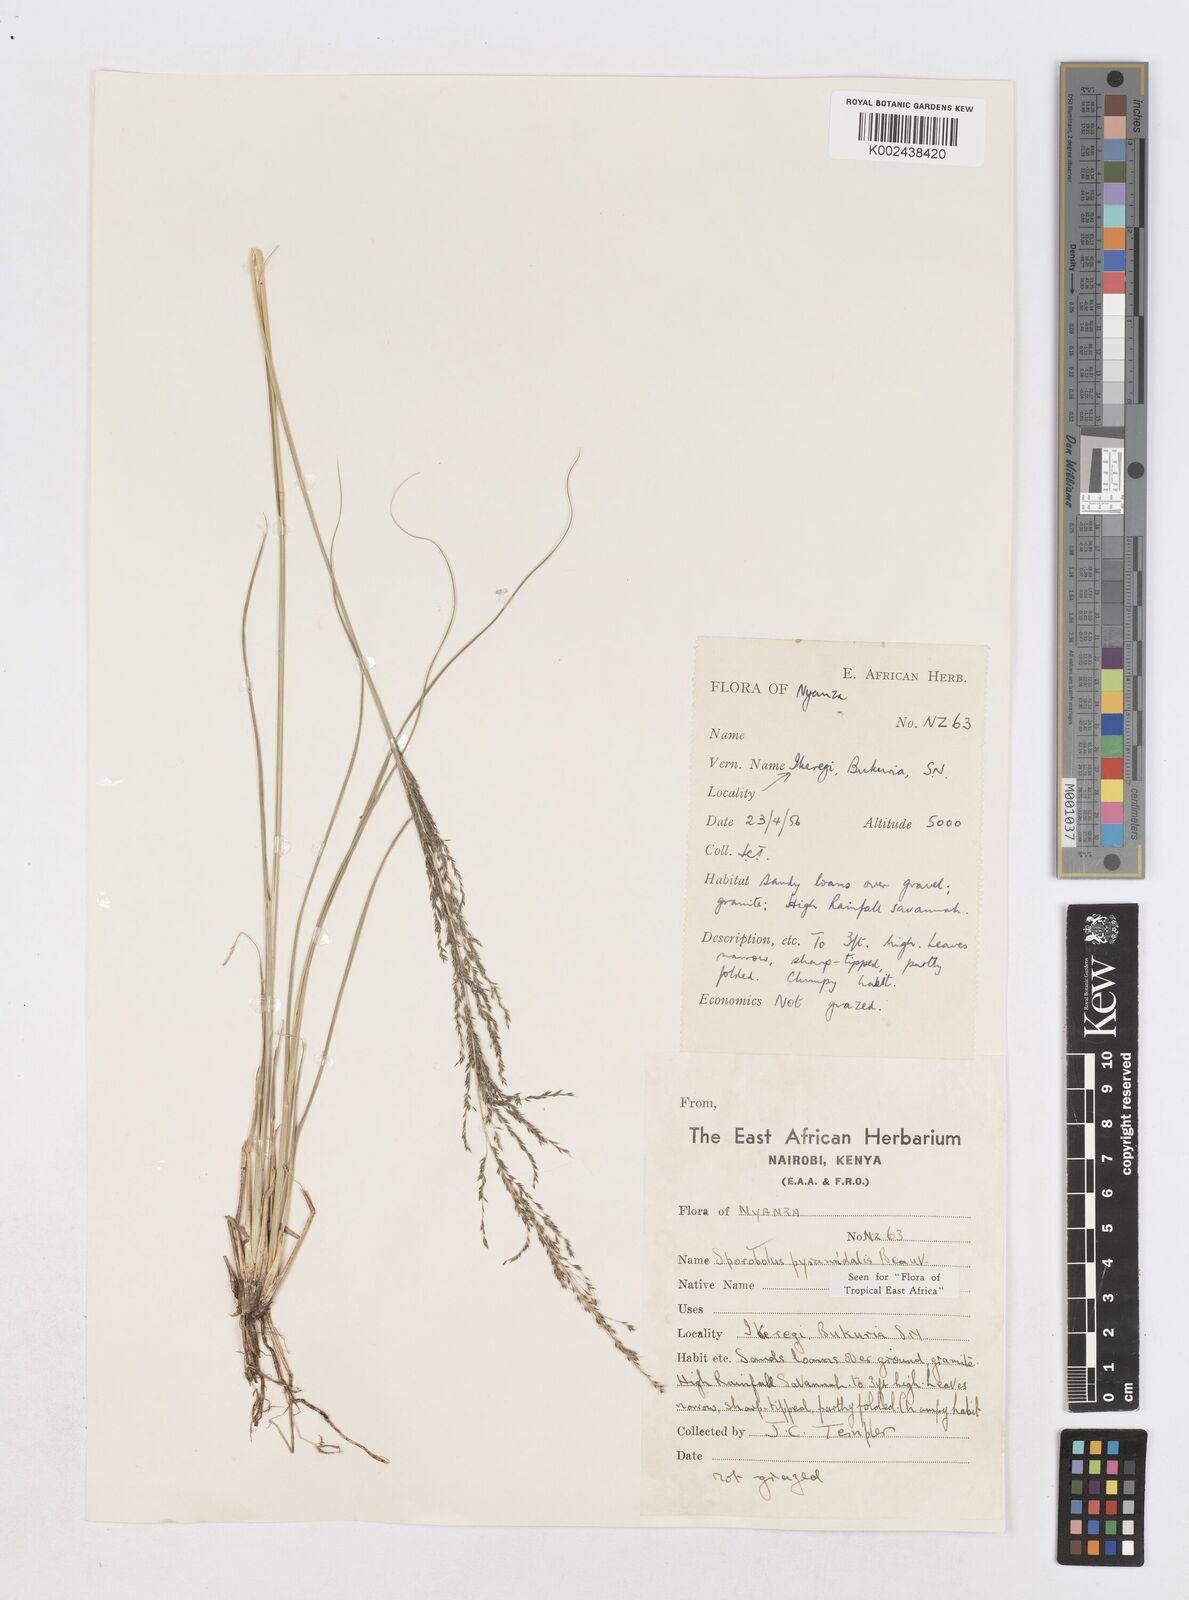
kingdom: Plantae
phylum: Tracheophyta
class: Liliopsida
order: Poales
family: Poaceae
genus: Sporobolus
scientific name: Sporobolus pyramidalis
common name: West indian dropseed
